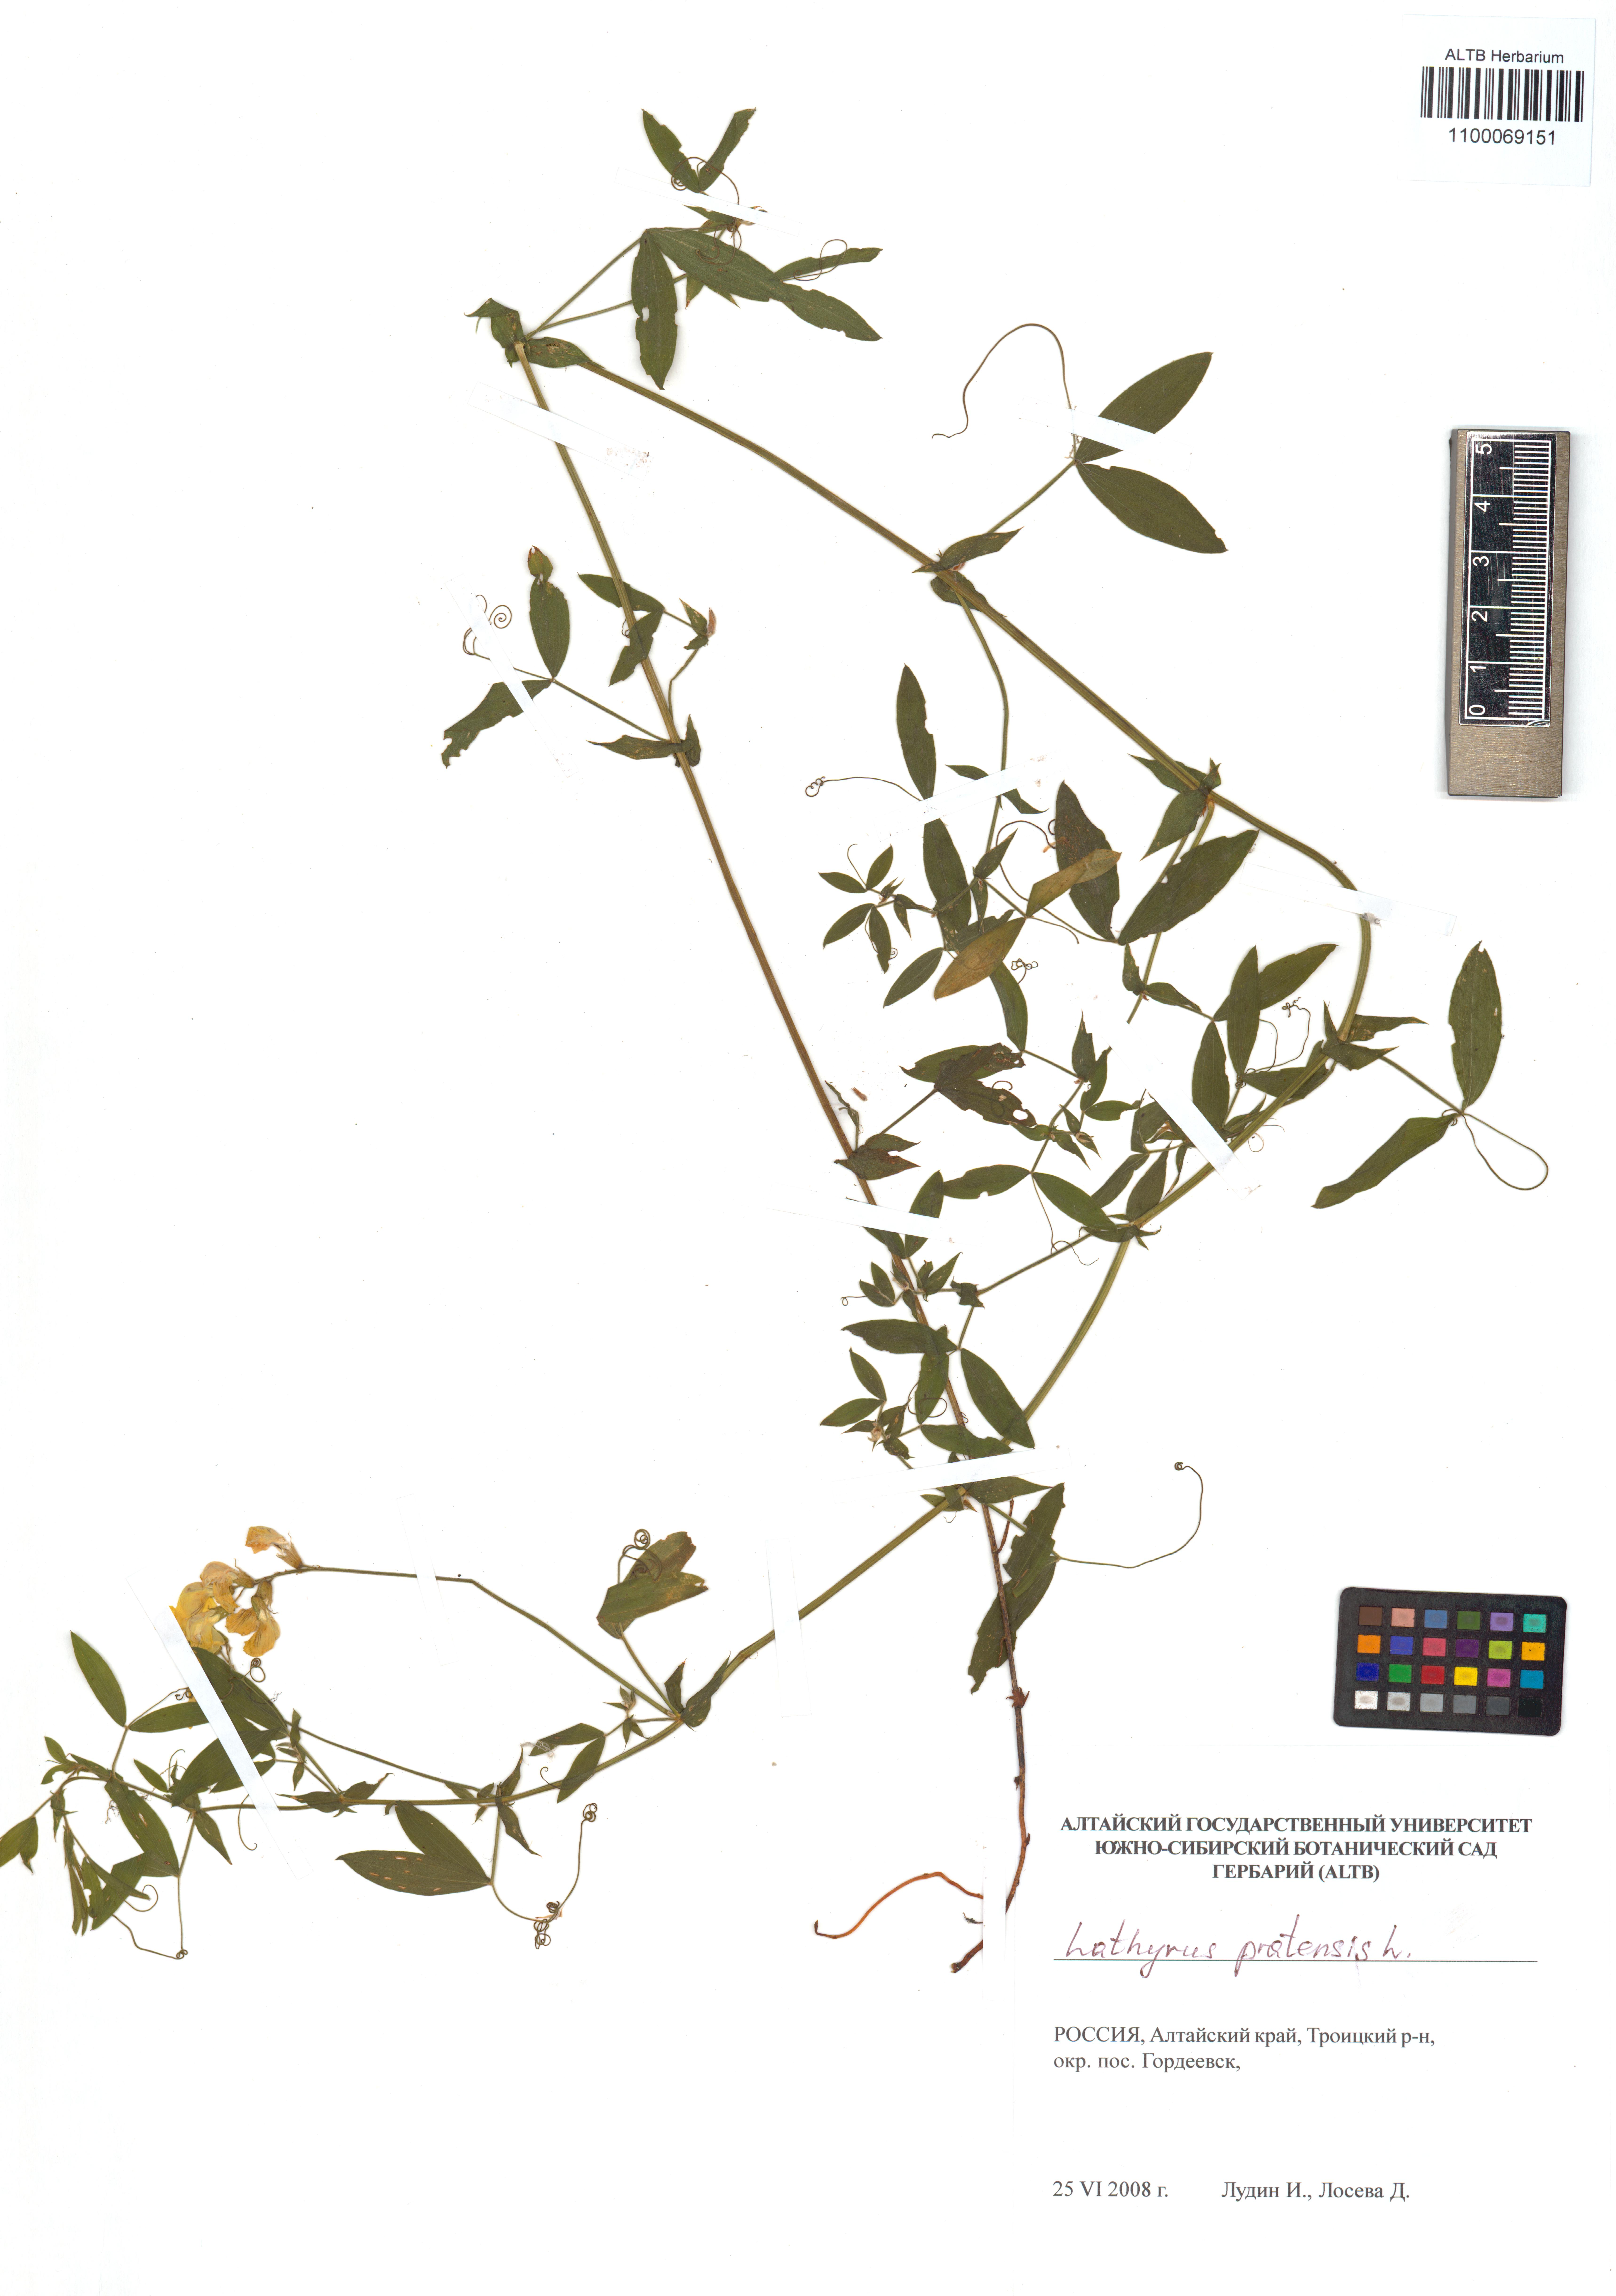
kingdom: Plantae
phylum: Tracheophyta
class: Magnoliopsida
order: Fabales
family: Fabaceae
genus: Lathyrus
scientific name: Lathyrus pratensis
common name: Meadow vetchling
